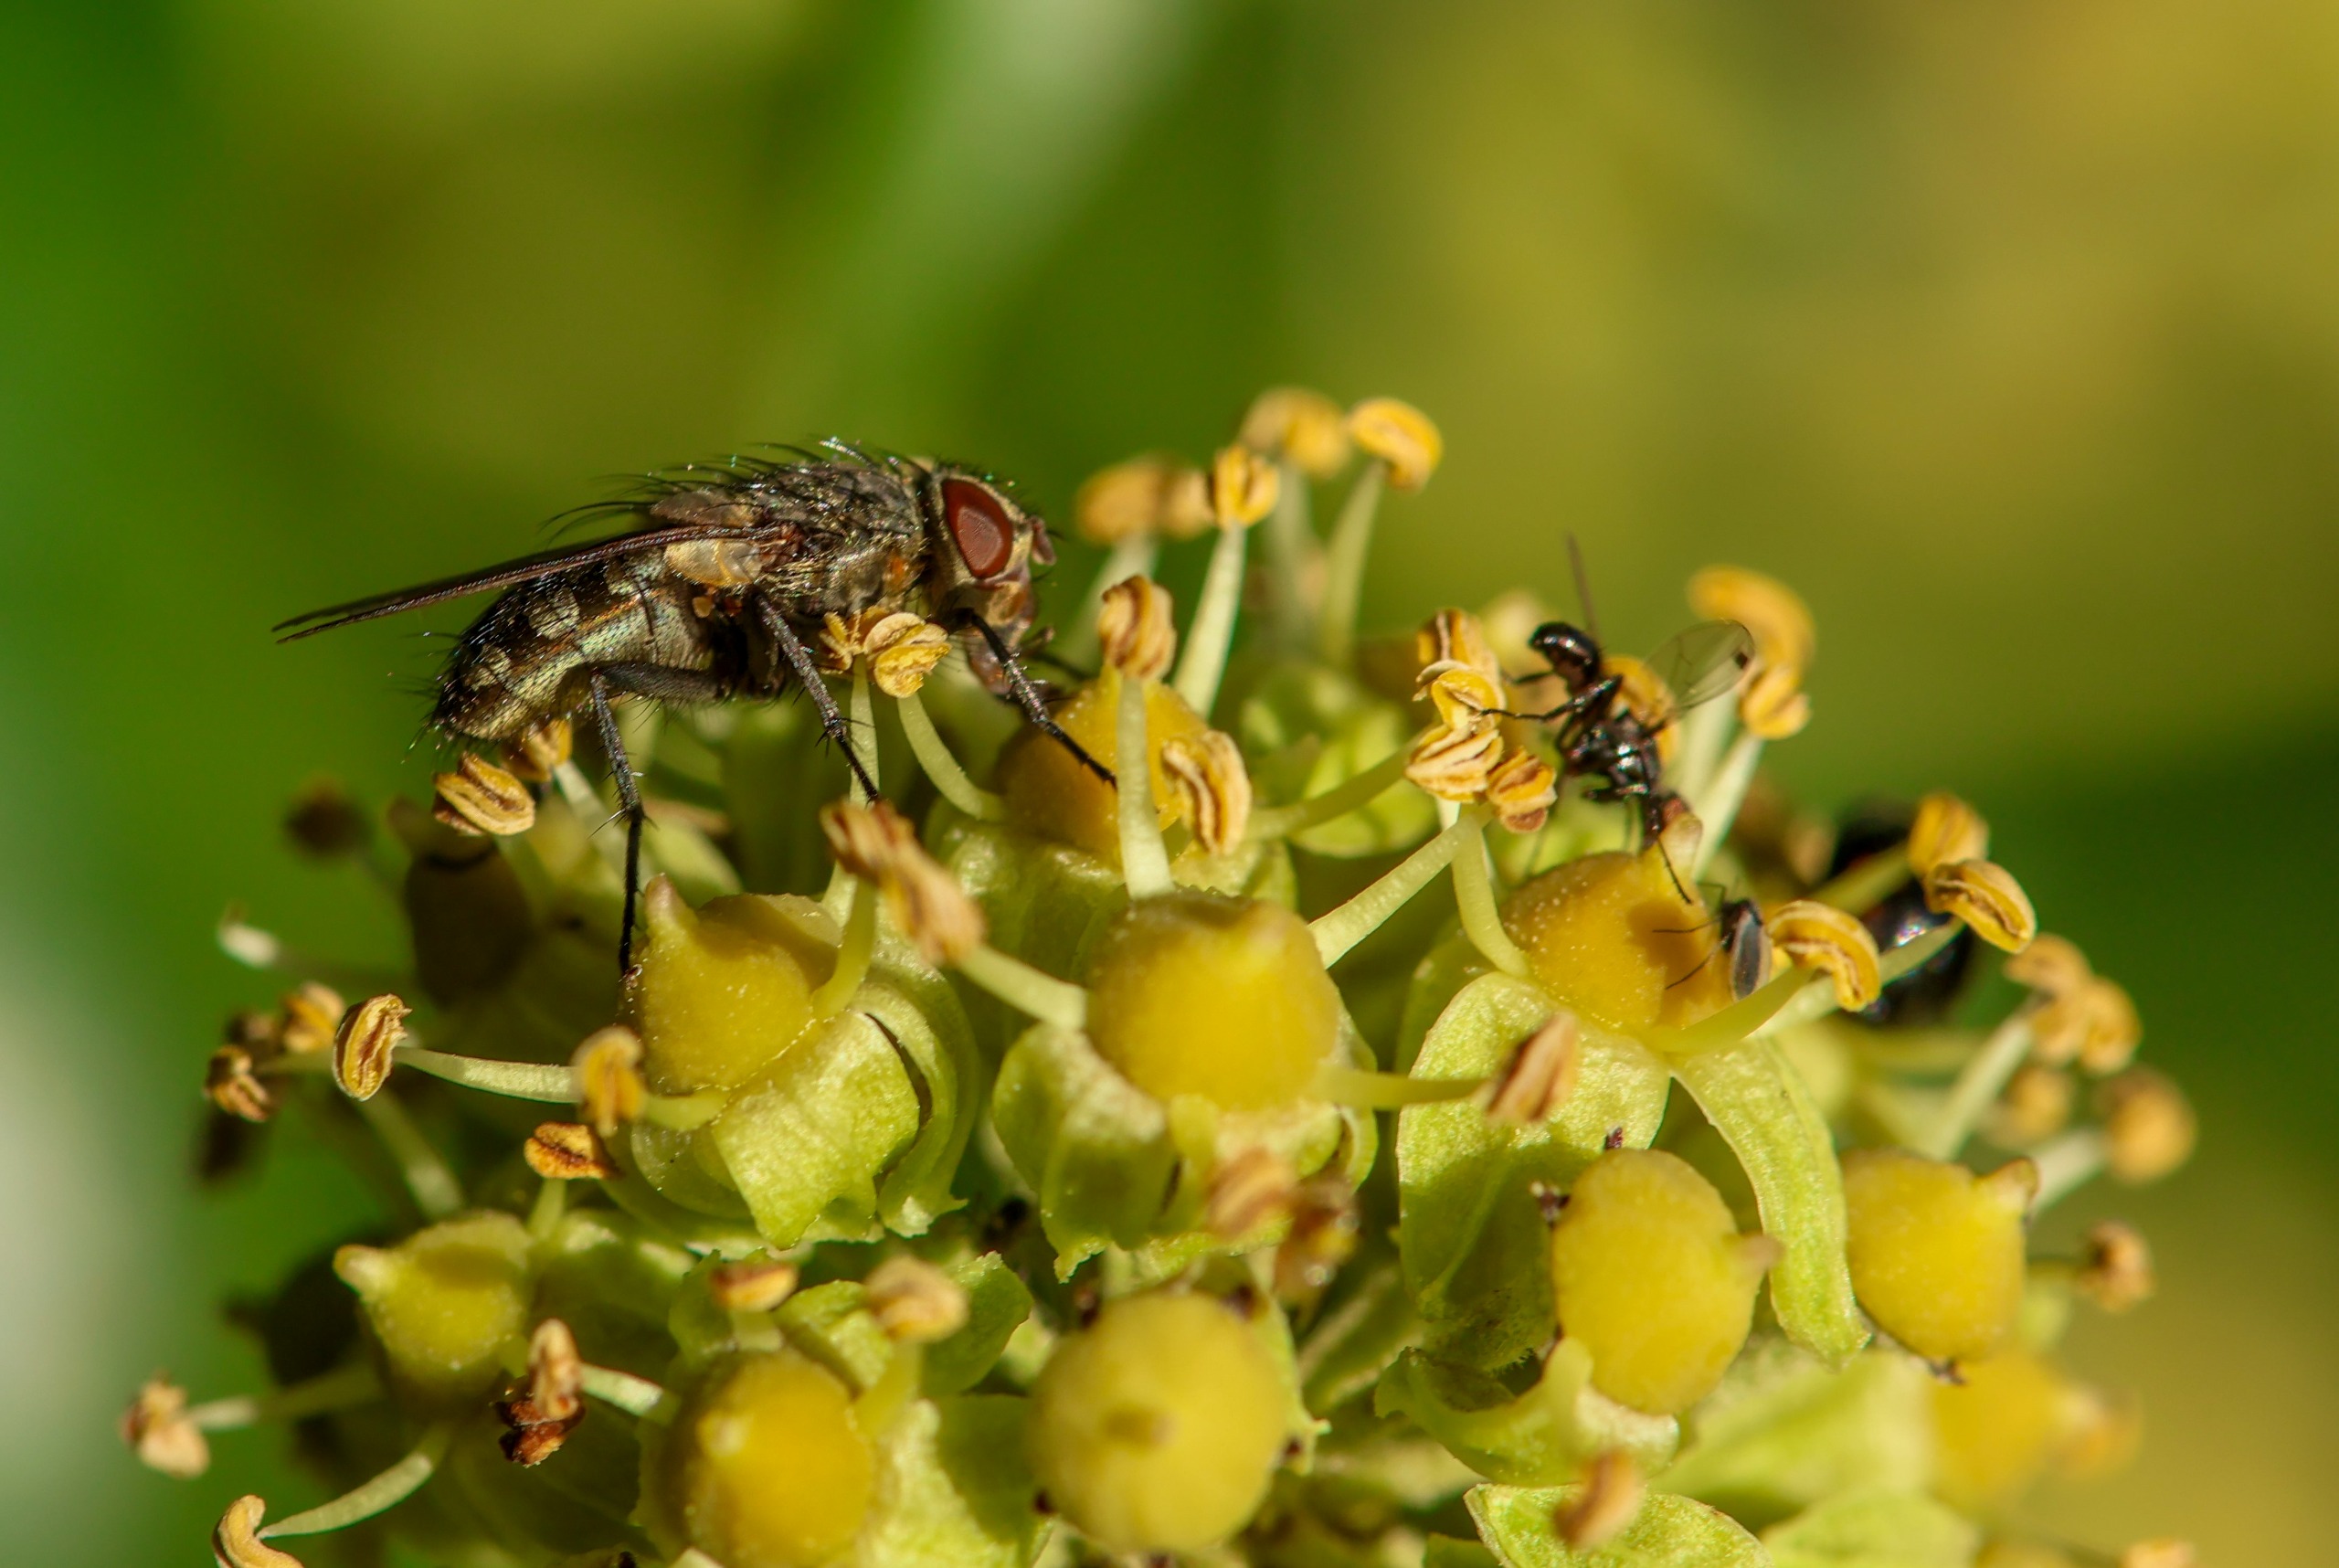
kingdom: Animalia
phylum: Arthropoda
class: Insecta
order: Diptera
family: Polleniidae
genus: Pollenia
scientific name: Pollenia
